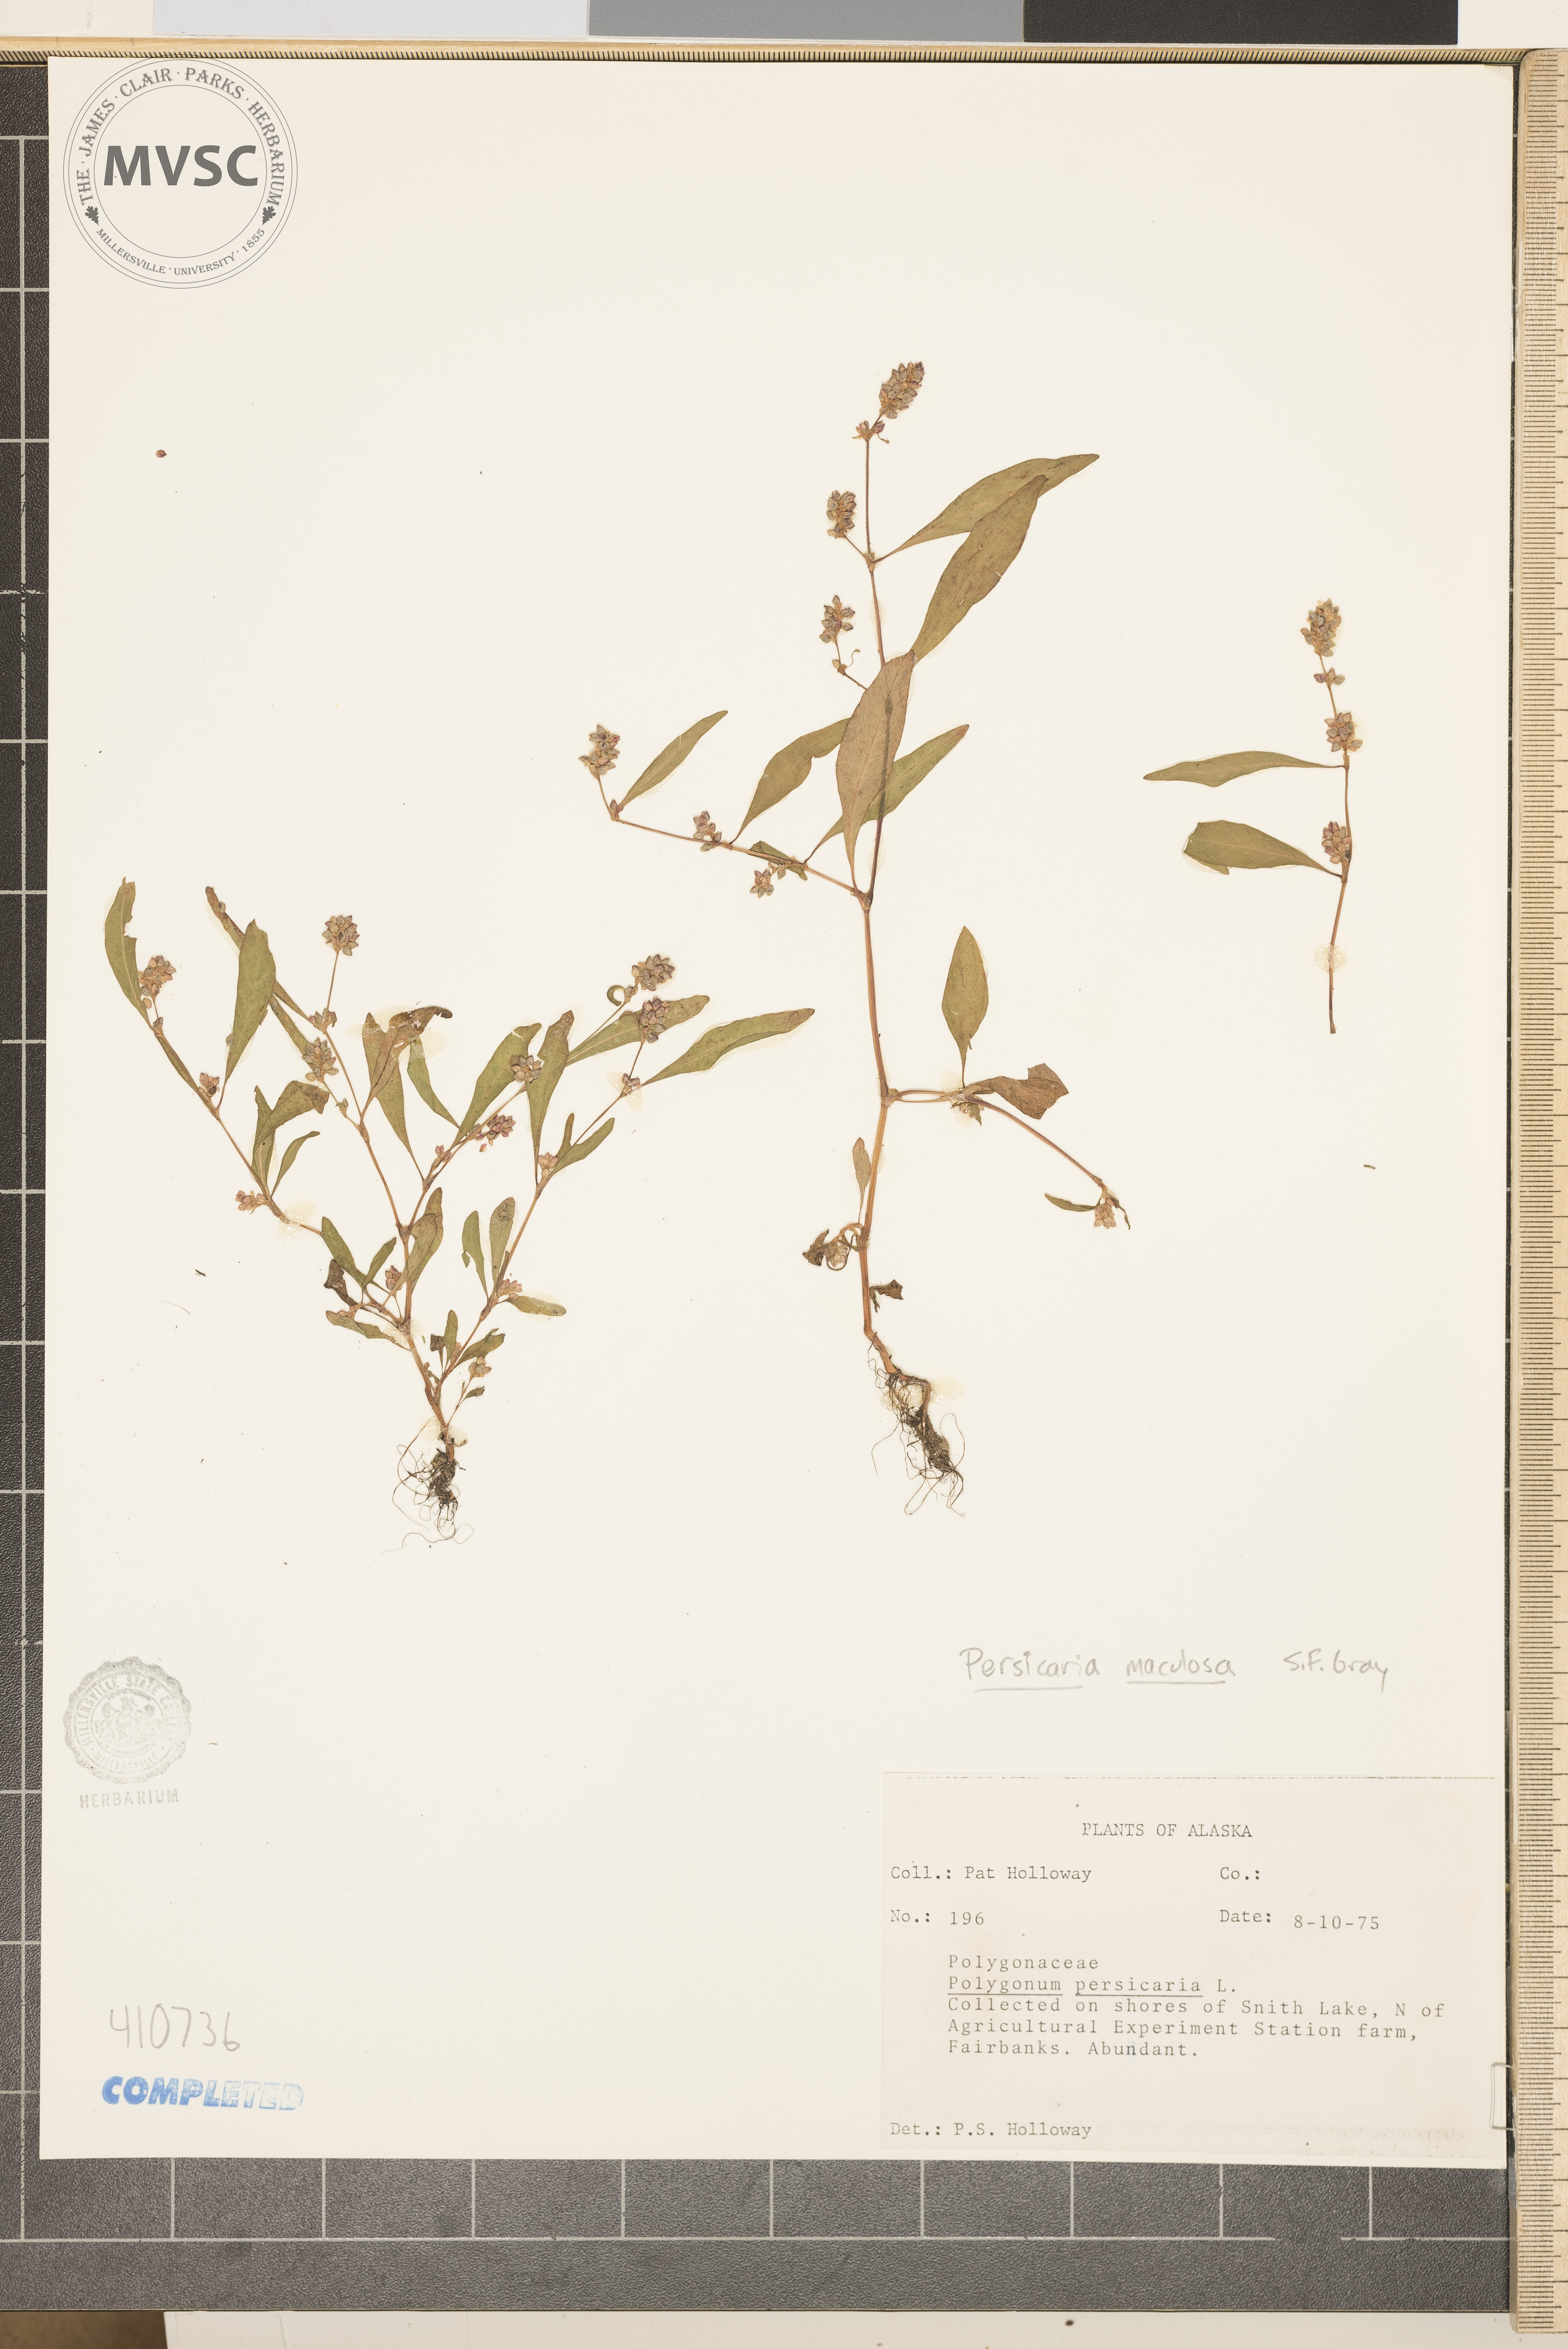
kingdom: Plantae
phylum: Tracheophyta
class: Magnoliopsida
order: Caryophyllales
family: Polygonaceae
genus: Persicaria
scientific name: Persicaria hydropiper
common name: Water-pepper
